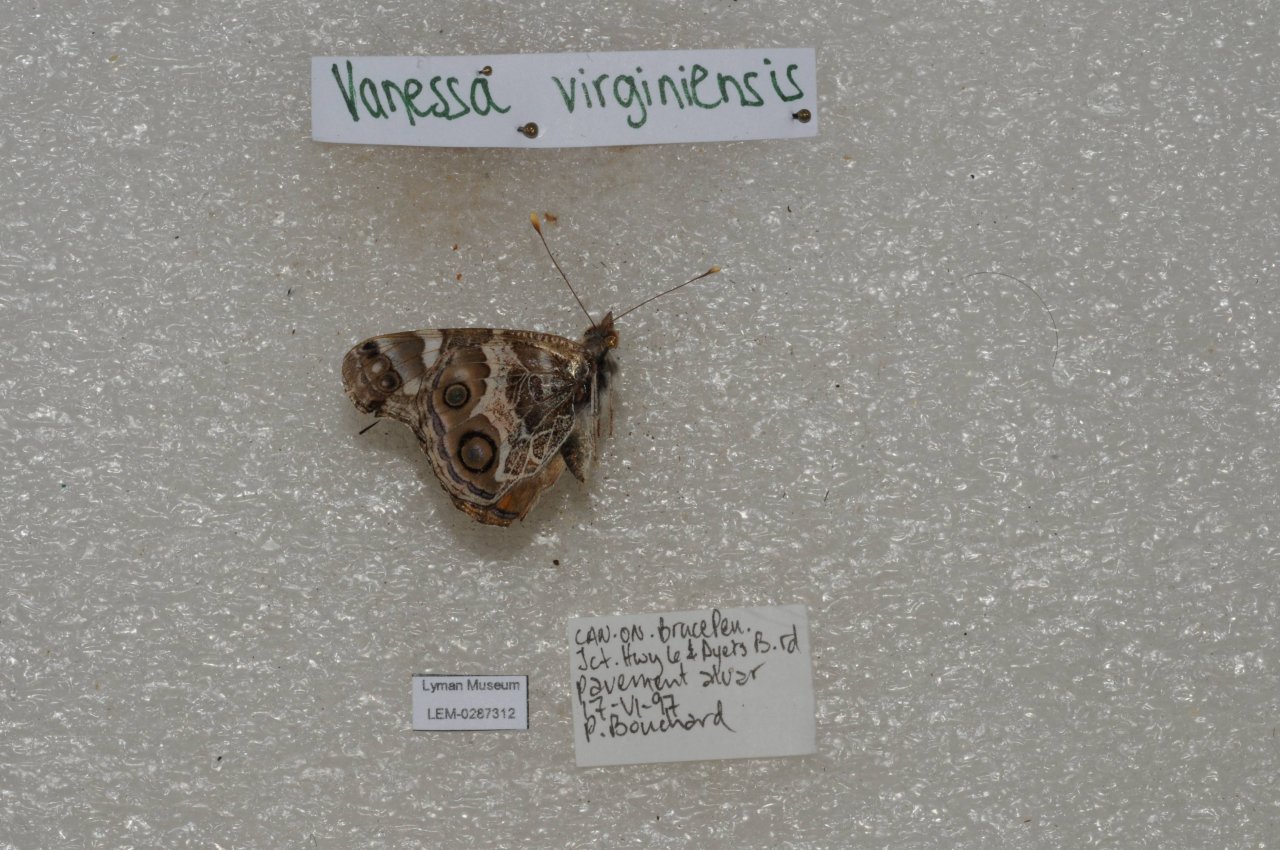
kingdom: Animalia
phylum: Arthropoda
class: Insecta
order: Lepidoptera
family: Nymphalidae
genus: Vanessa
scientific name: Vanessa virginiensis
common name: American Lady
